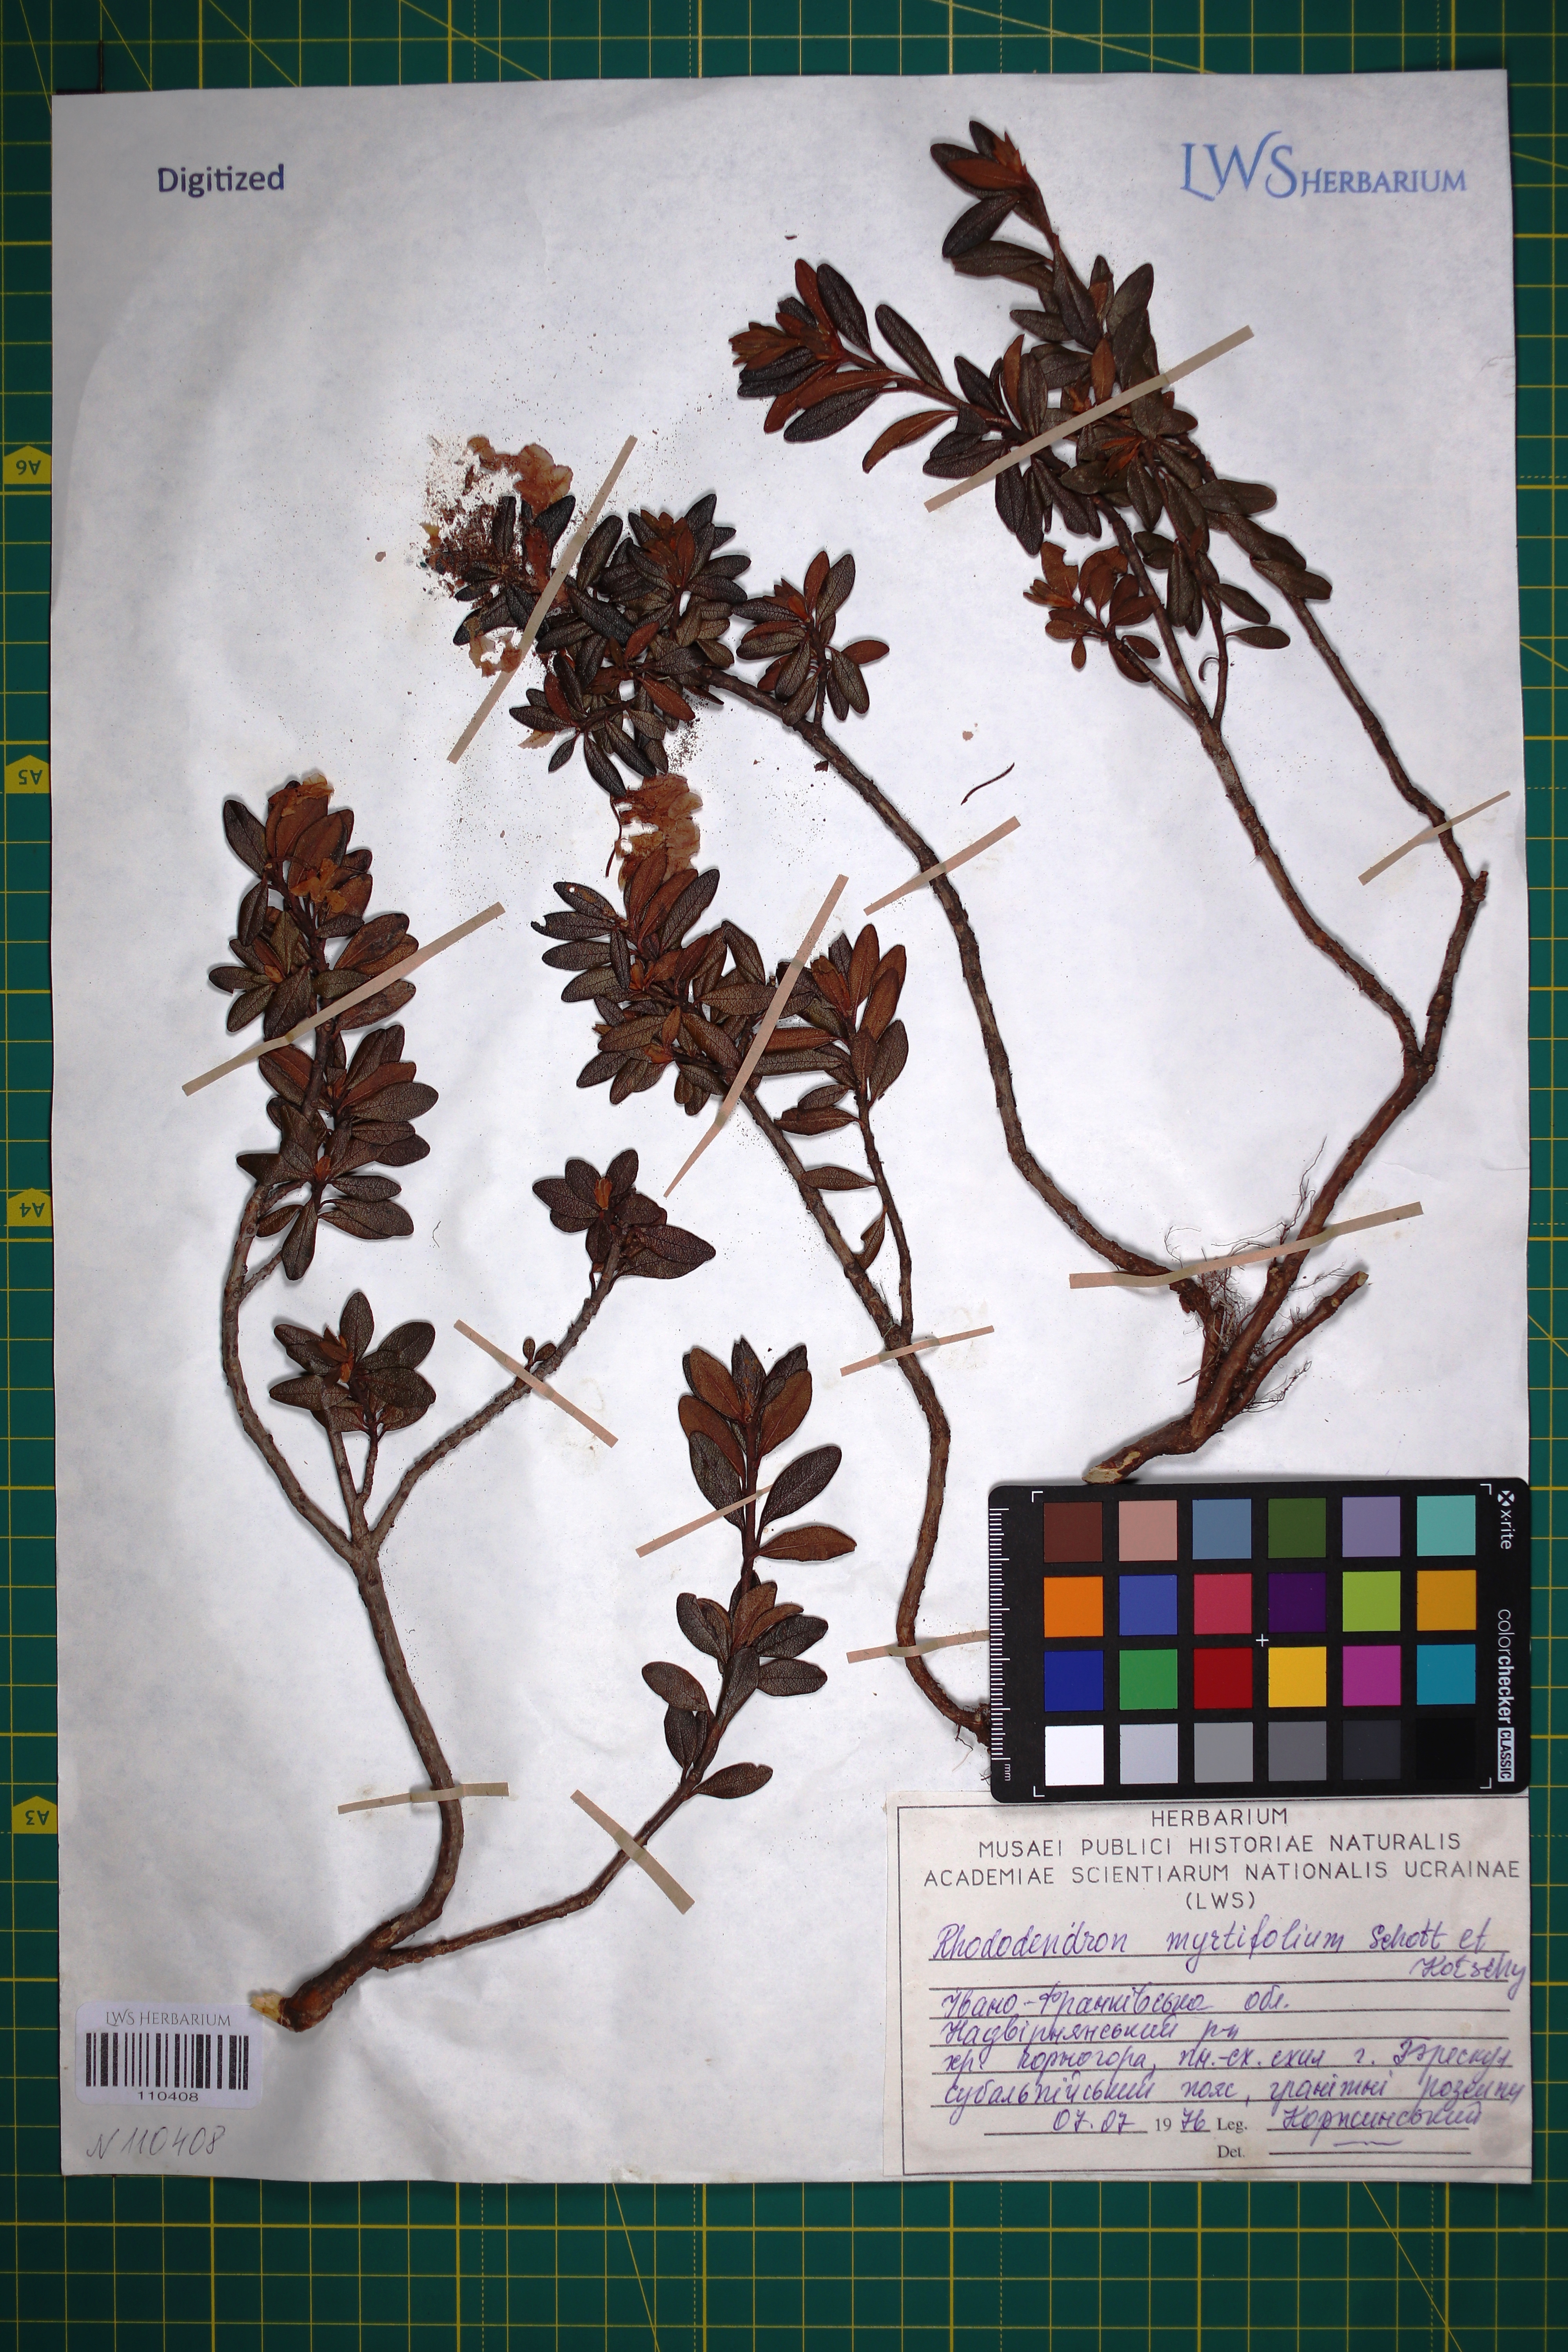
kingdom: Plantae
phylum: Tracheophyta
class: Magnoliopsida
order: Ericales
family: Ericaceae
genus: Rhododendron
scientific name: Rhododendron kotschyi
